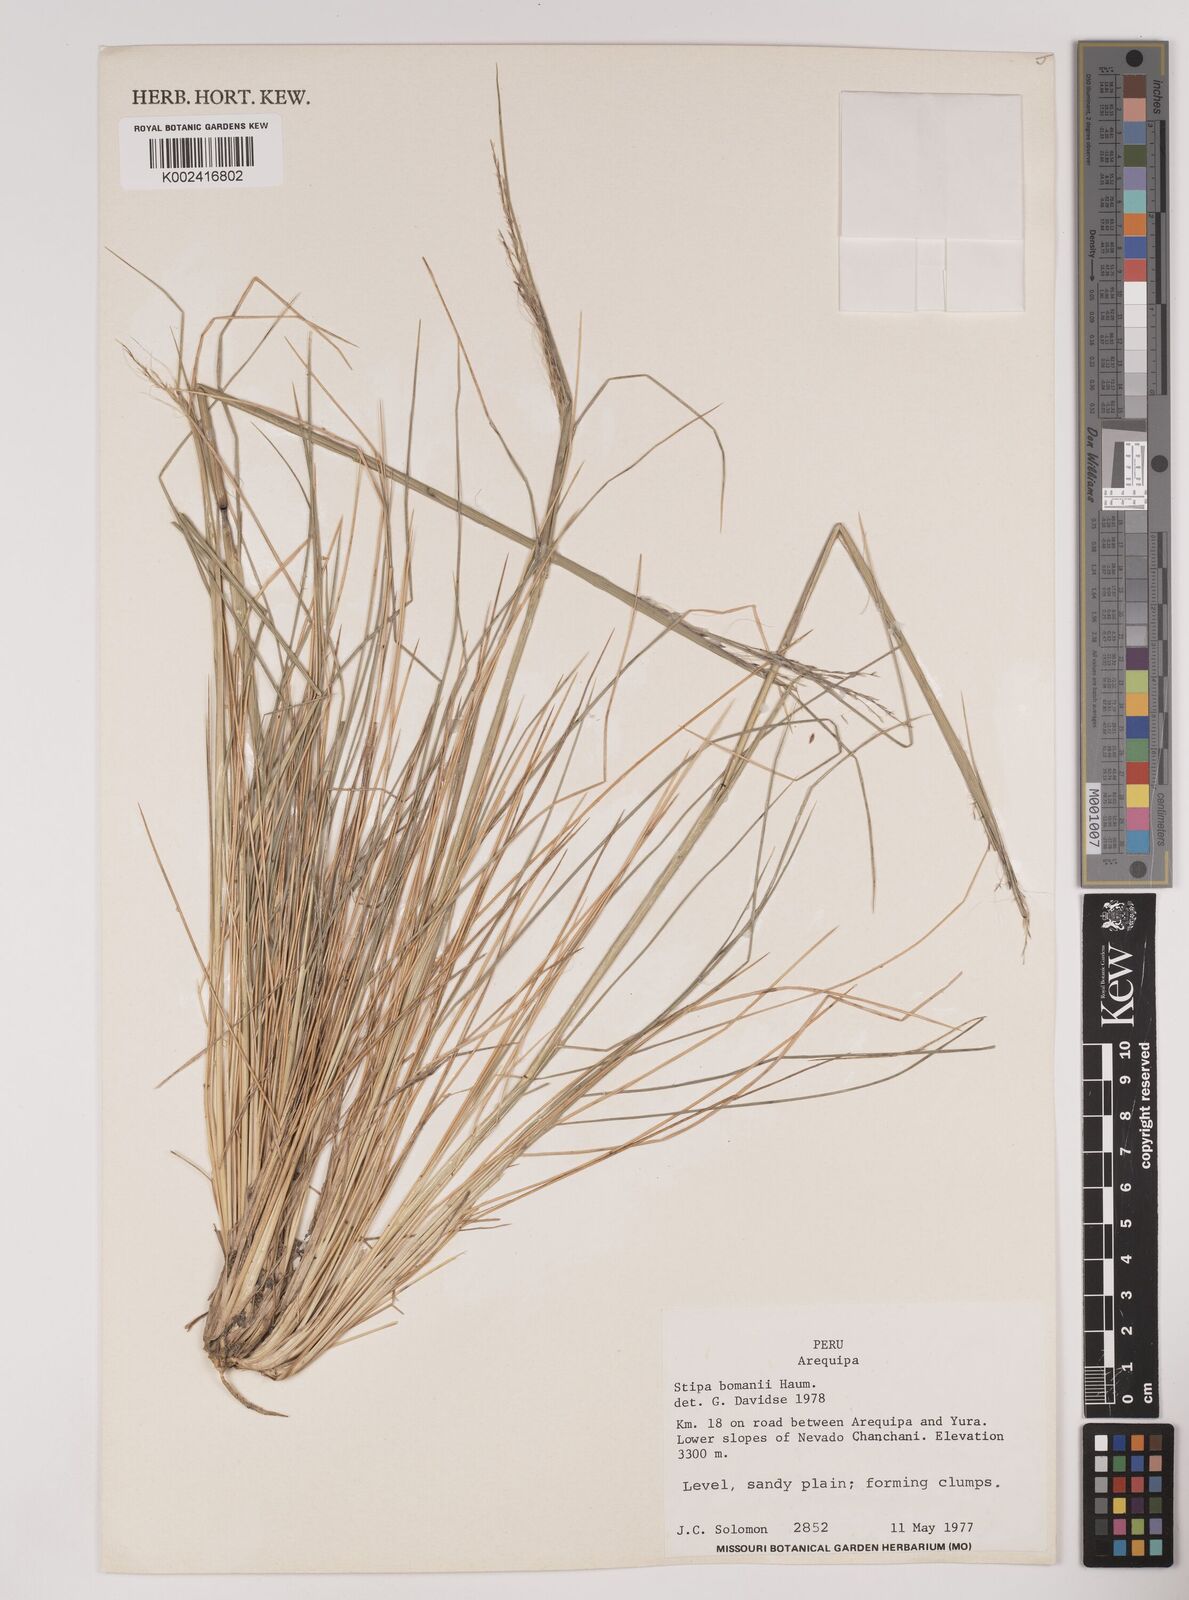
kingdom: Plantae
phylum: Tracheophyta
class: Liliopsida
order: Poales
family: Poaceae
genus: Stipa
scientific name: Stipa bomanii
